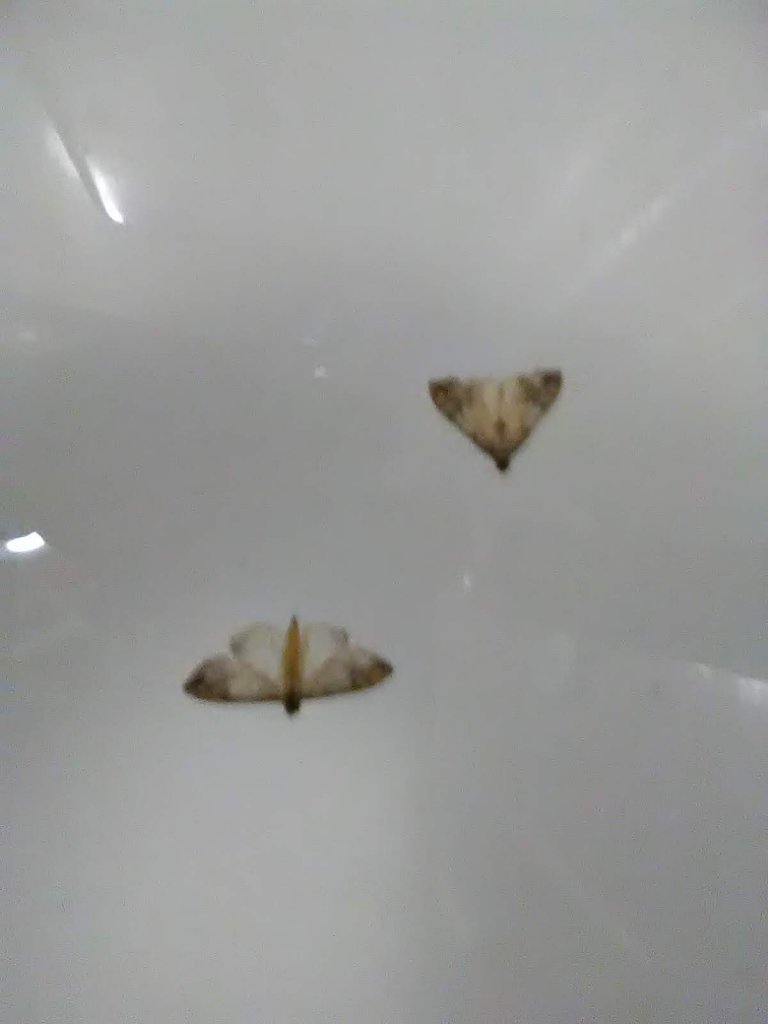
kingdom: Animalia
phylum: Arthropoda
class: Insecta
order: Lepidoptera
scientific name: Lepidoptera
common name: Butterflies
